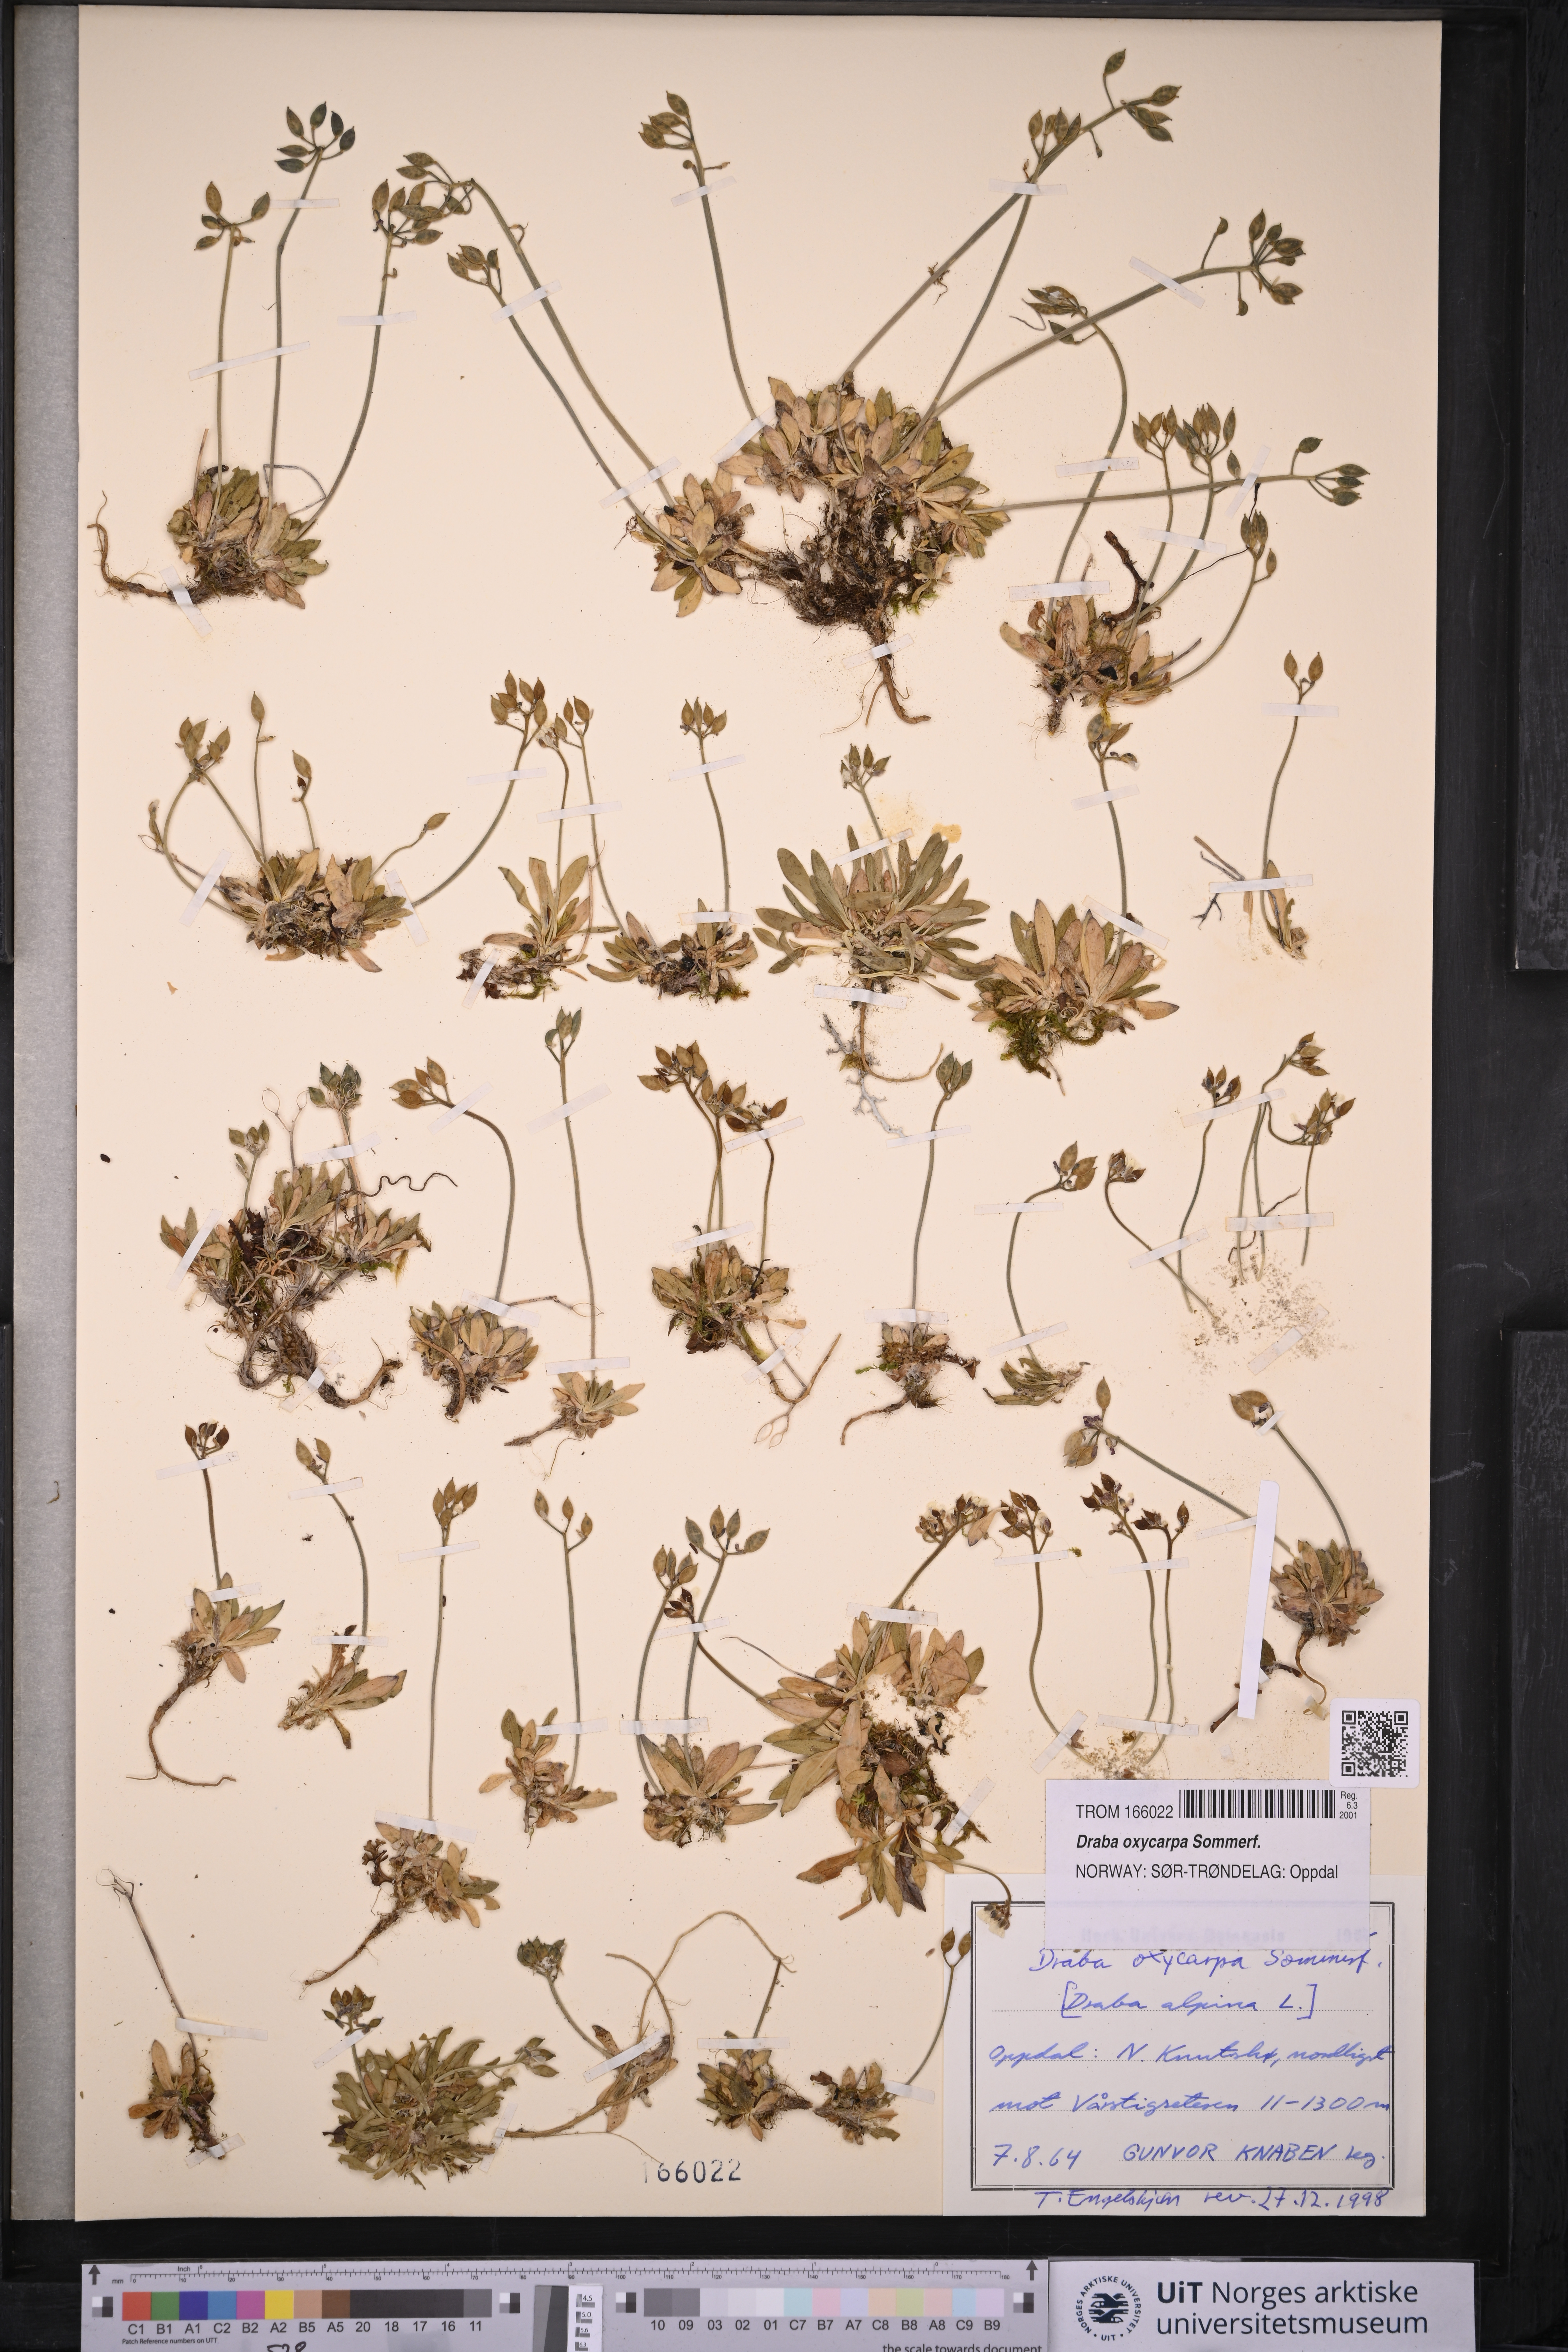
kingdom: Plantae
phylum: Tracheophyta
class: Magnoliopsida
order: Brassicales
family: Brassicaceae
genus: Draba
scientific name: Draba oxycarpa
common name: Sharp-fruited whitlow-grass
